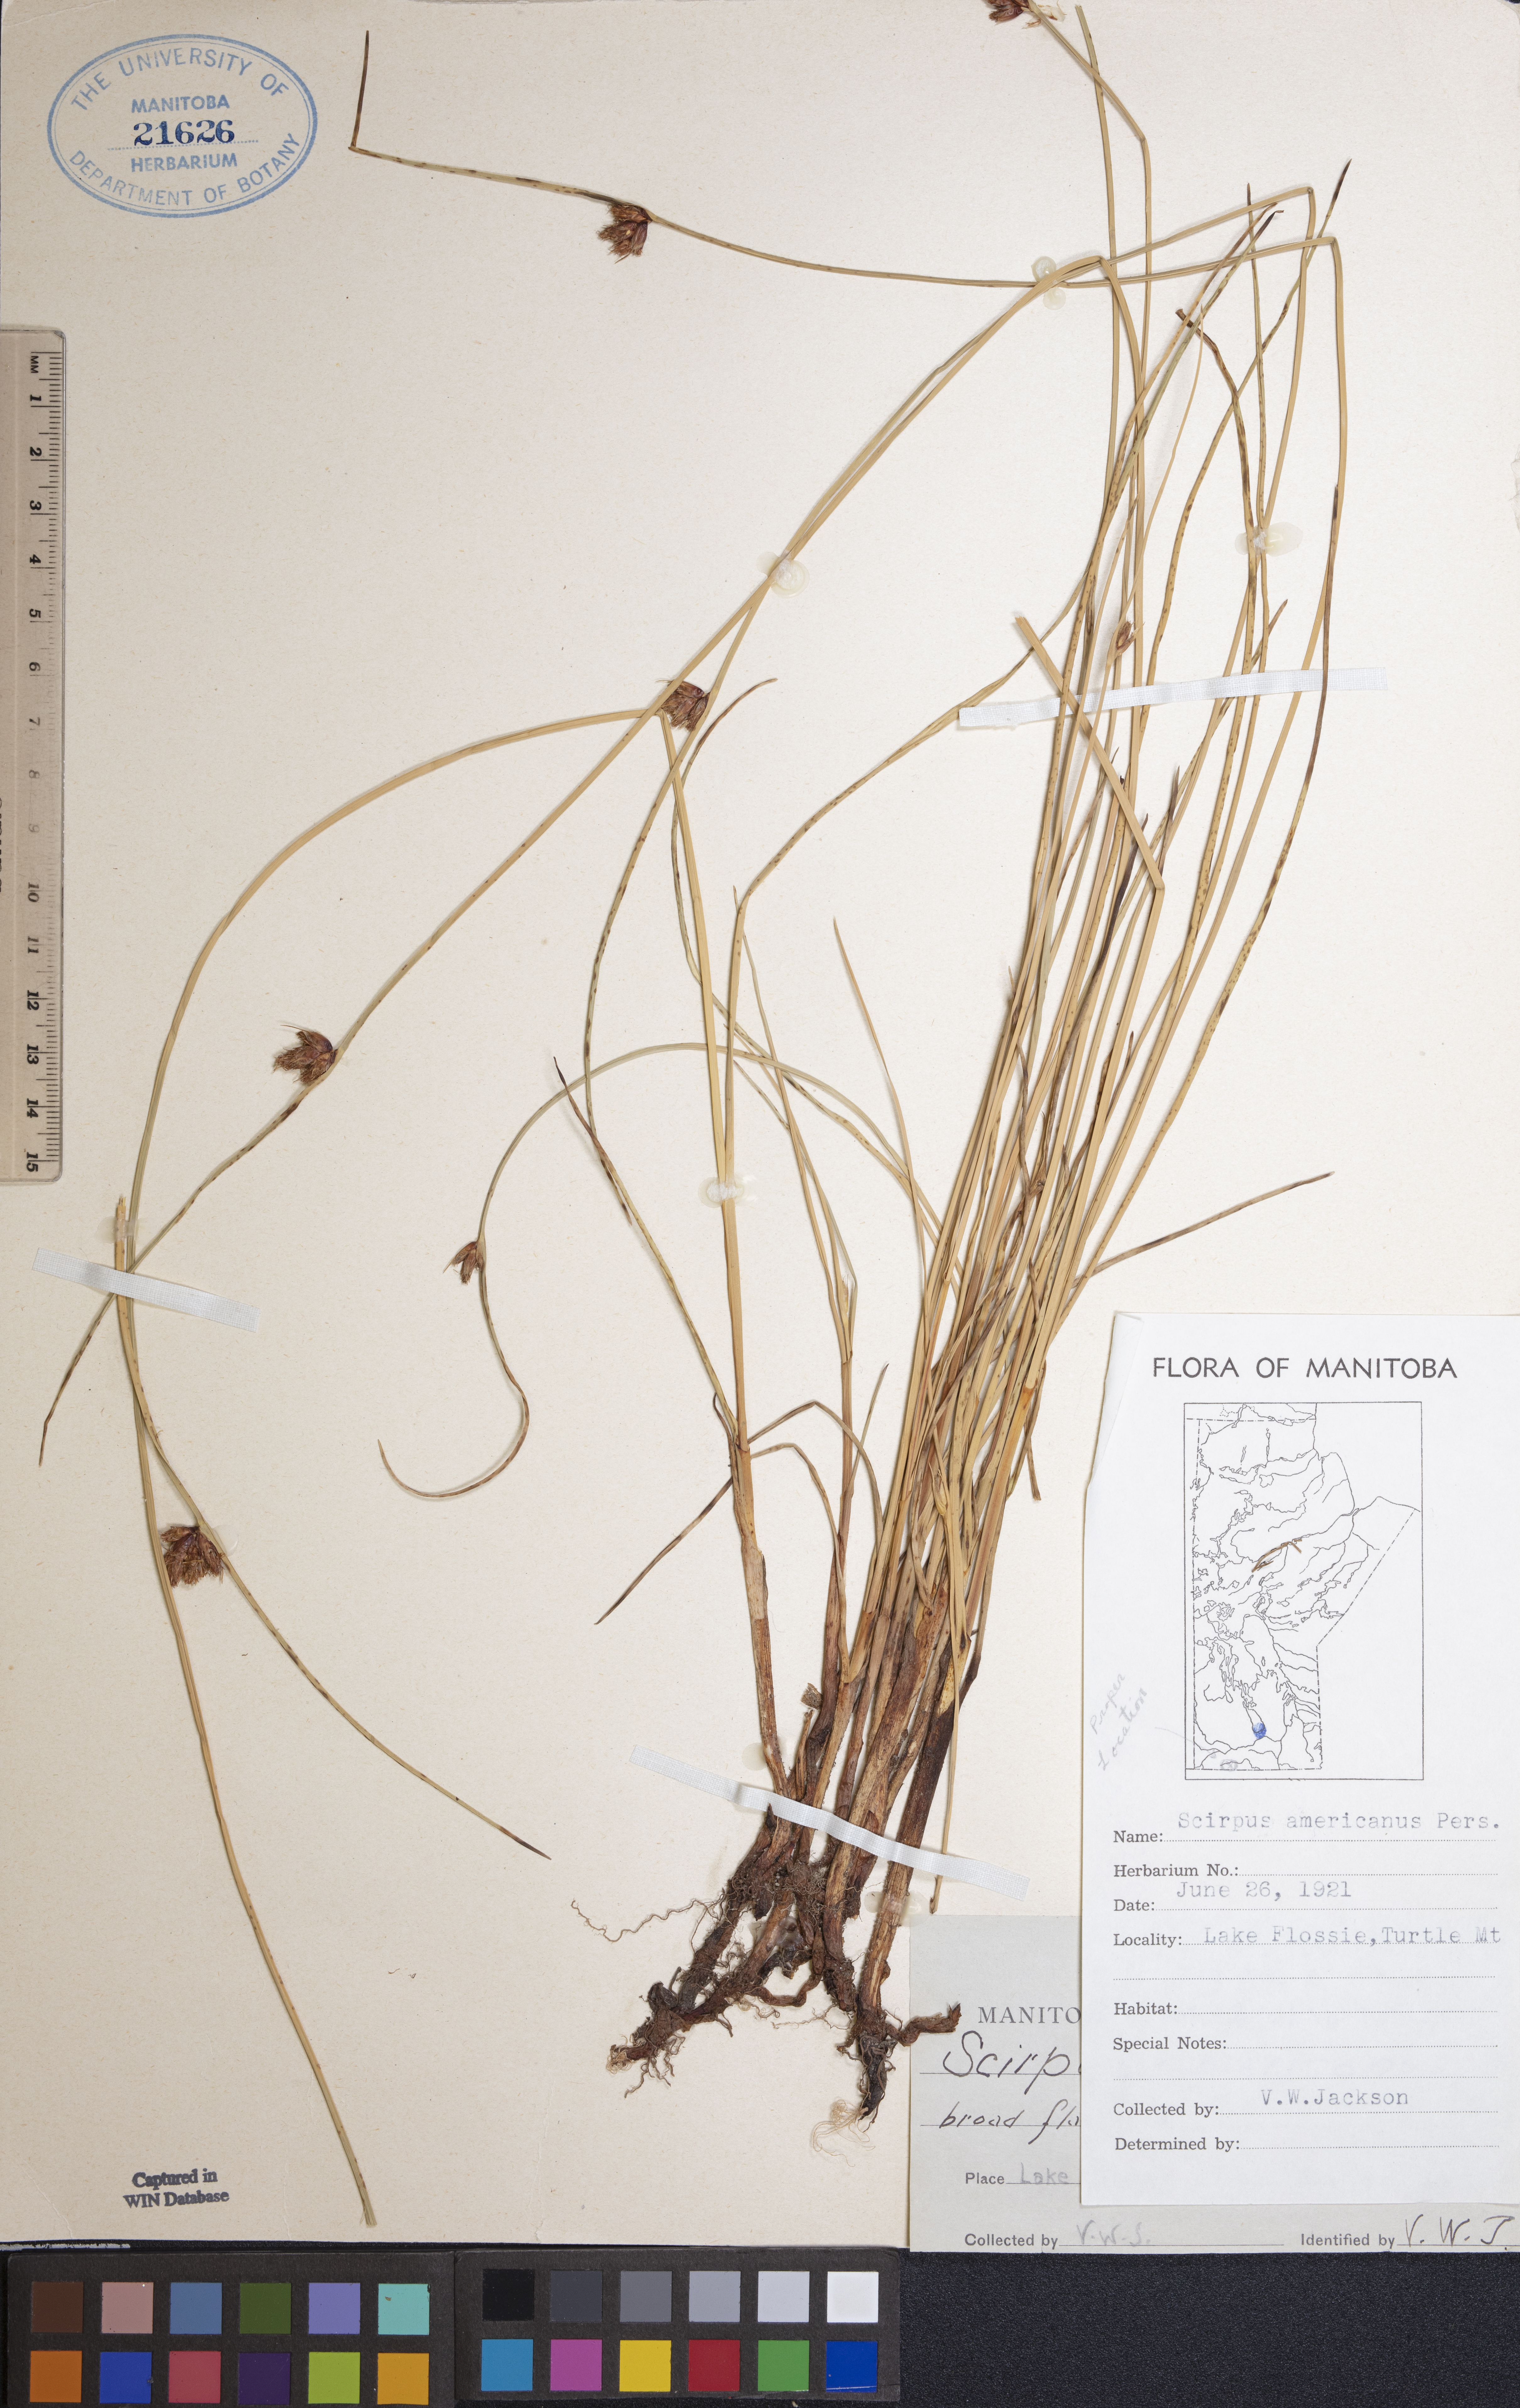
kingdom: Plantae
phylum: Tracheophyta
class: Liliopsida
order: Poales
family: Cyperaceae
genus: Schoenoplectus
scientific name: Schoenoplectus americanus
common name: American three-square bulrush
